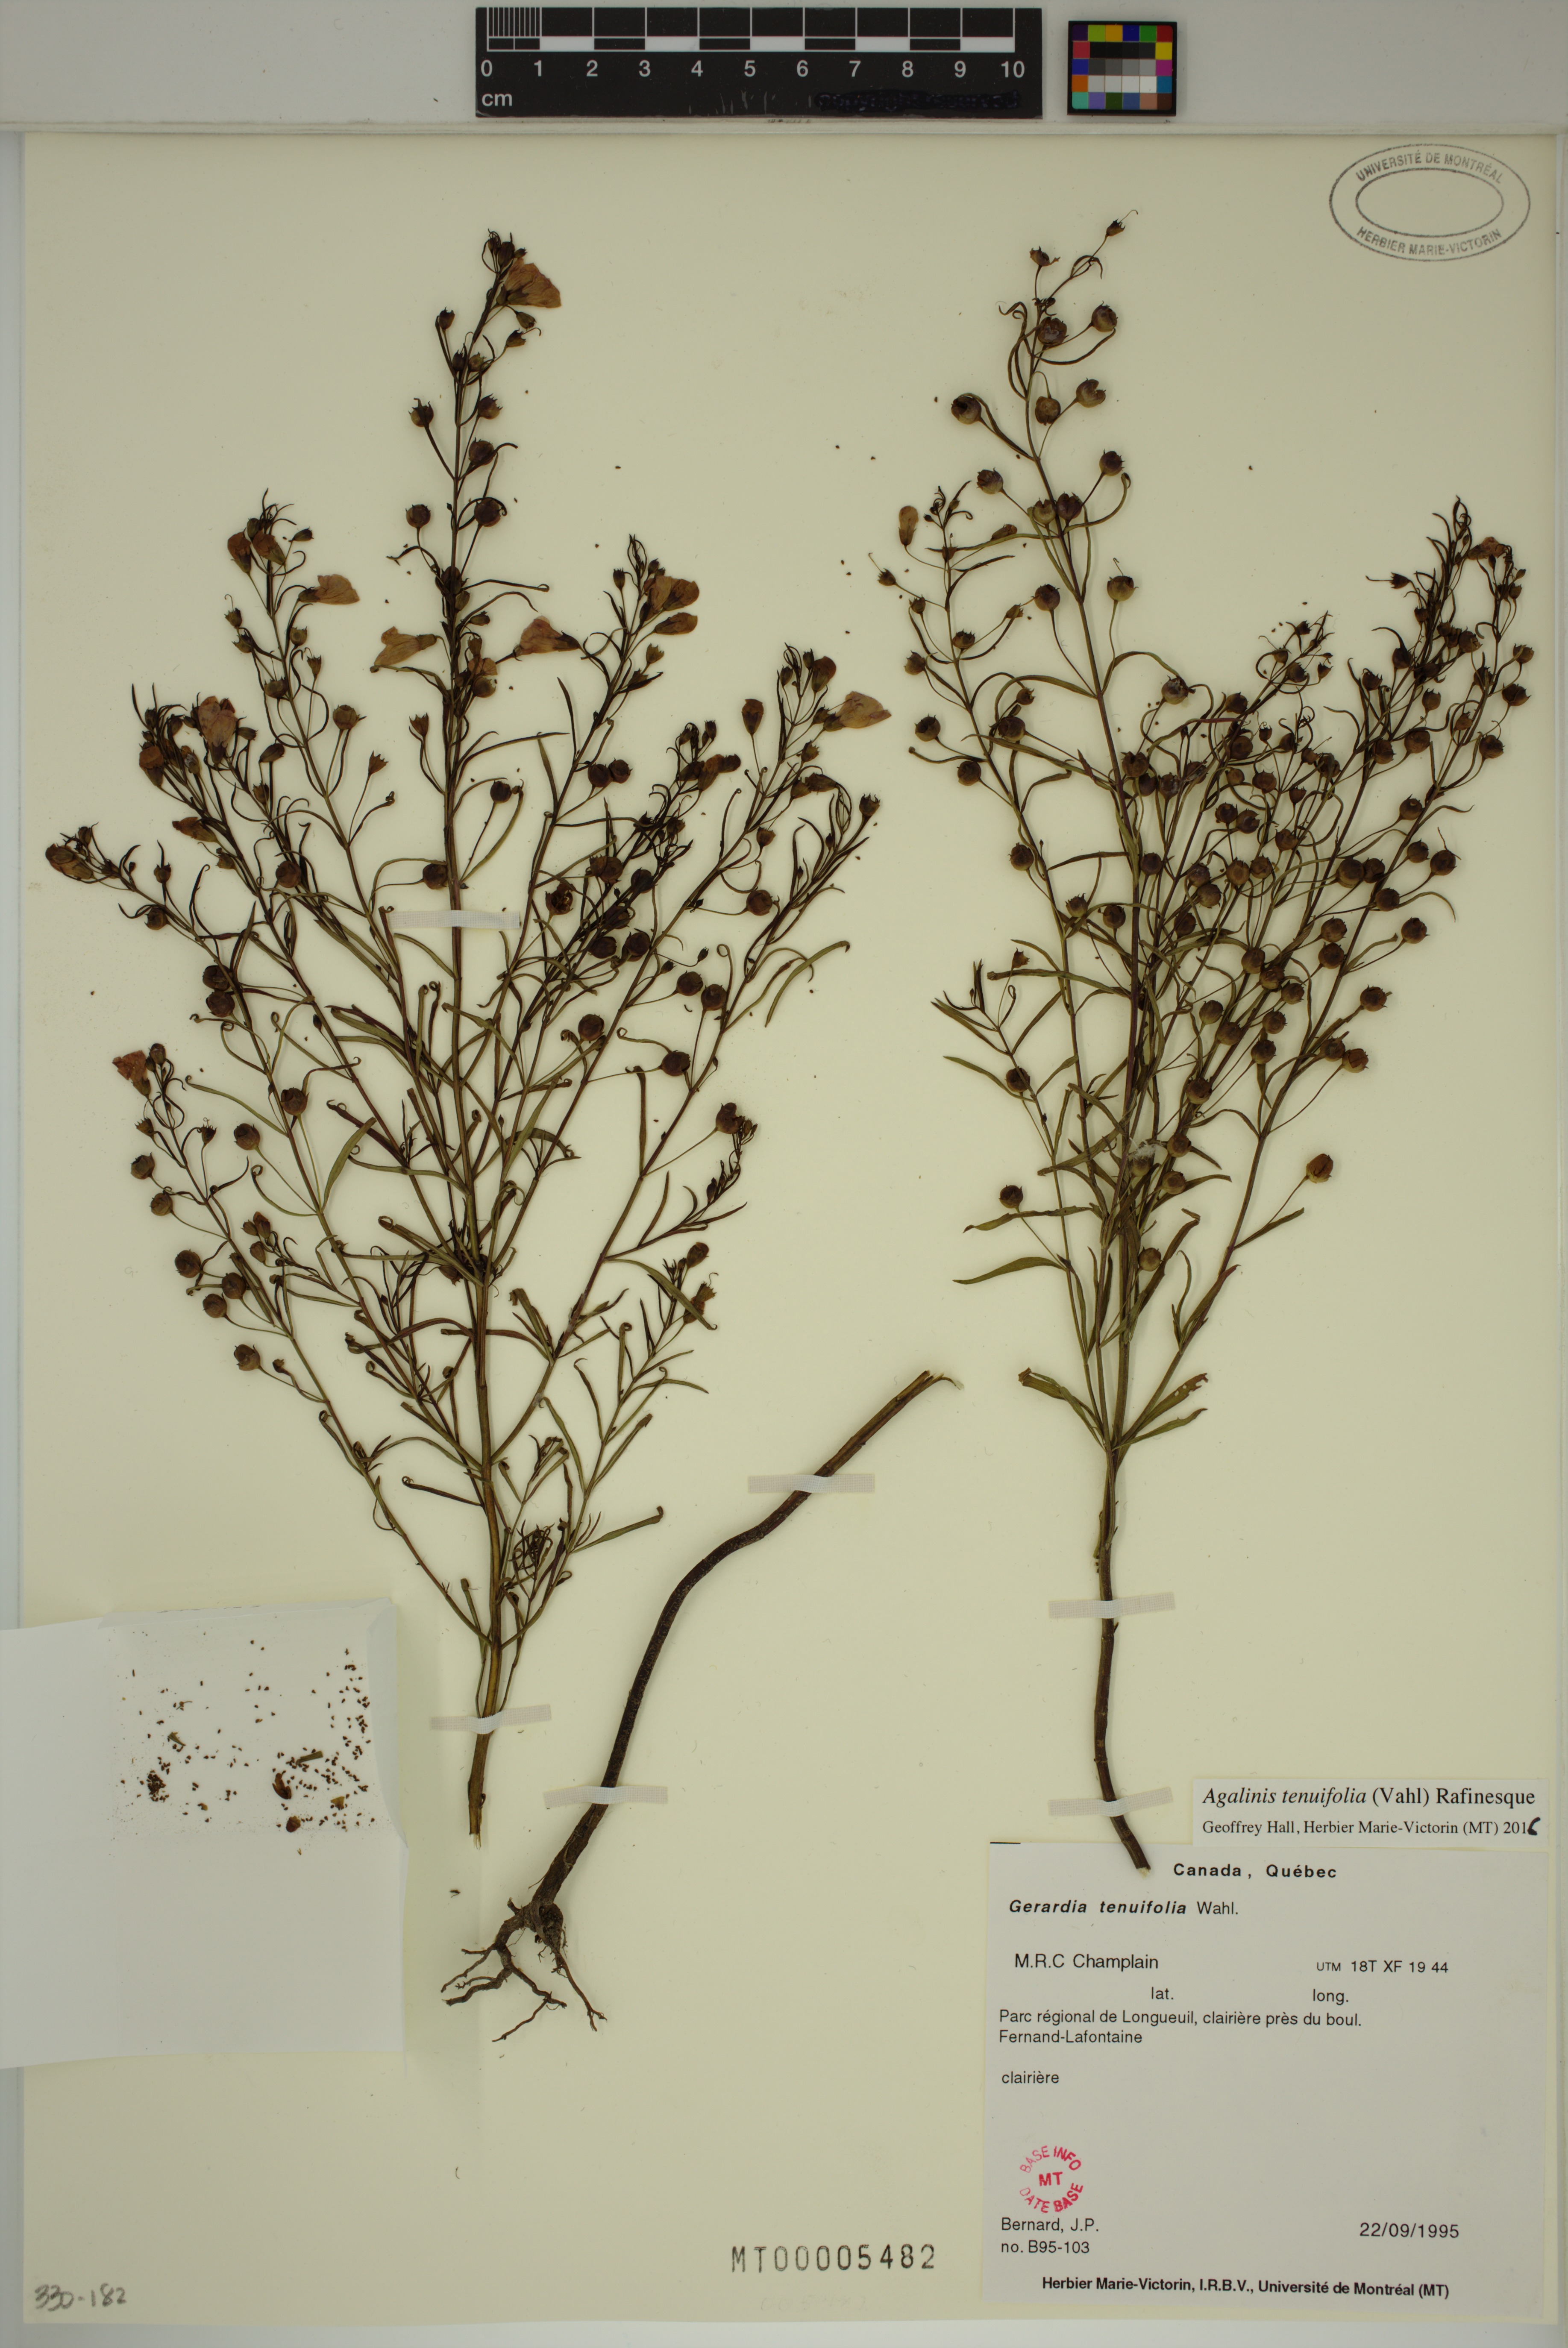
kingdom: Plantae
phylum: Tracheophyta
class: Magnoliopsida
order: Lamiales
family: Orobanchaceae
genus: Agalinis
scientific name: Agalinis tenuifolia
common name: Slender agalinis
